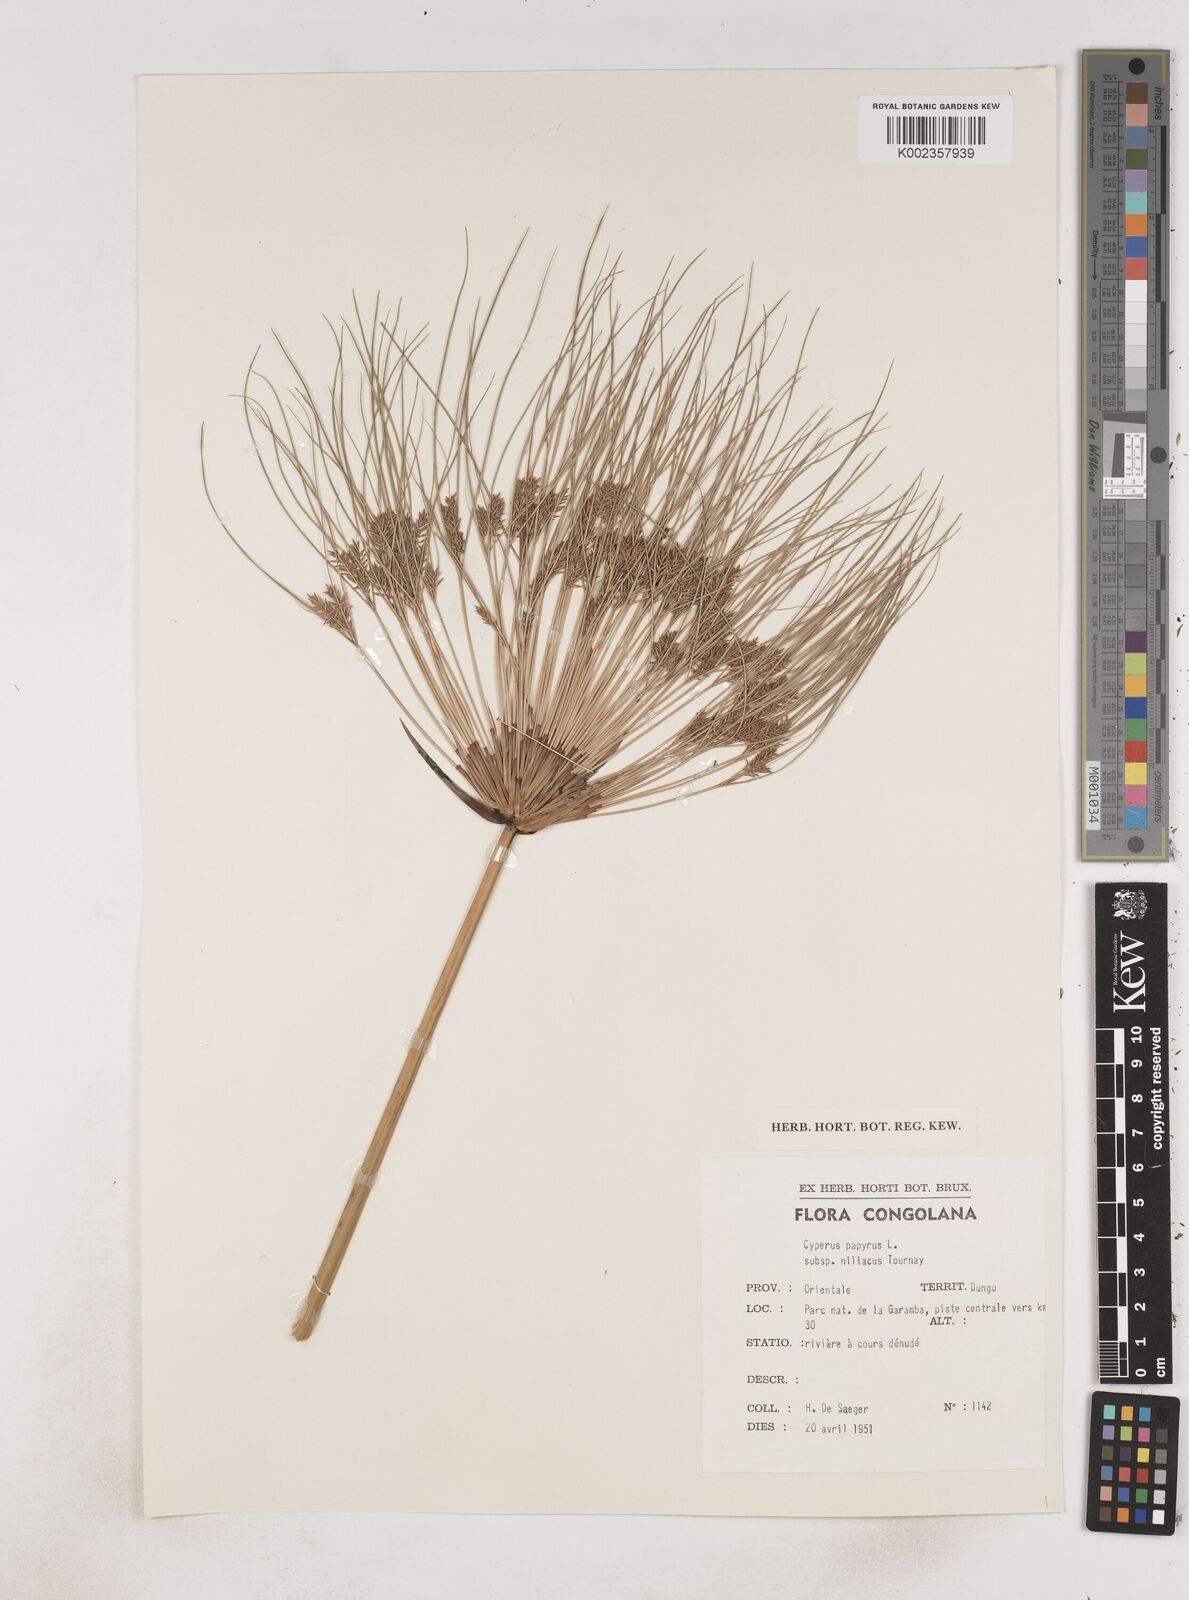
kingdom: Plantae
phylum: Tracheophyta
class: Liliopsida
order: Poales
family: Cyperaceae
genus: Cyperus
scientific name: Cyperus papyrus
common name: Papyrus
